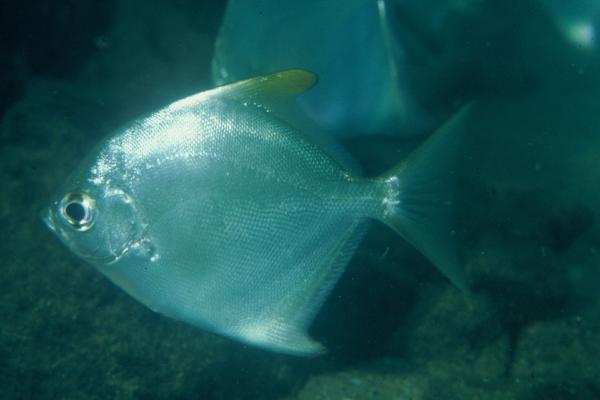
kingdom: Animalia
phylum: Chordata
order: Perciformes
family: Monodactylidae
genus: Monodactylus
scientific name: Monodactylus argenteus
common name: Silver moony
